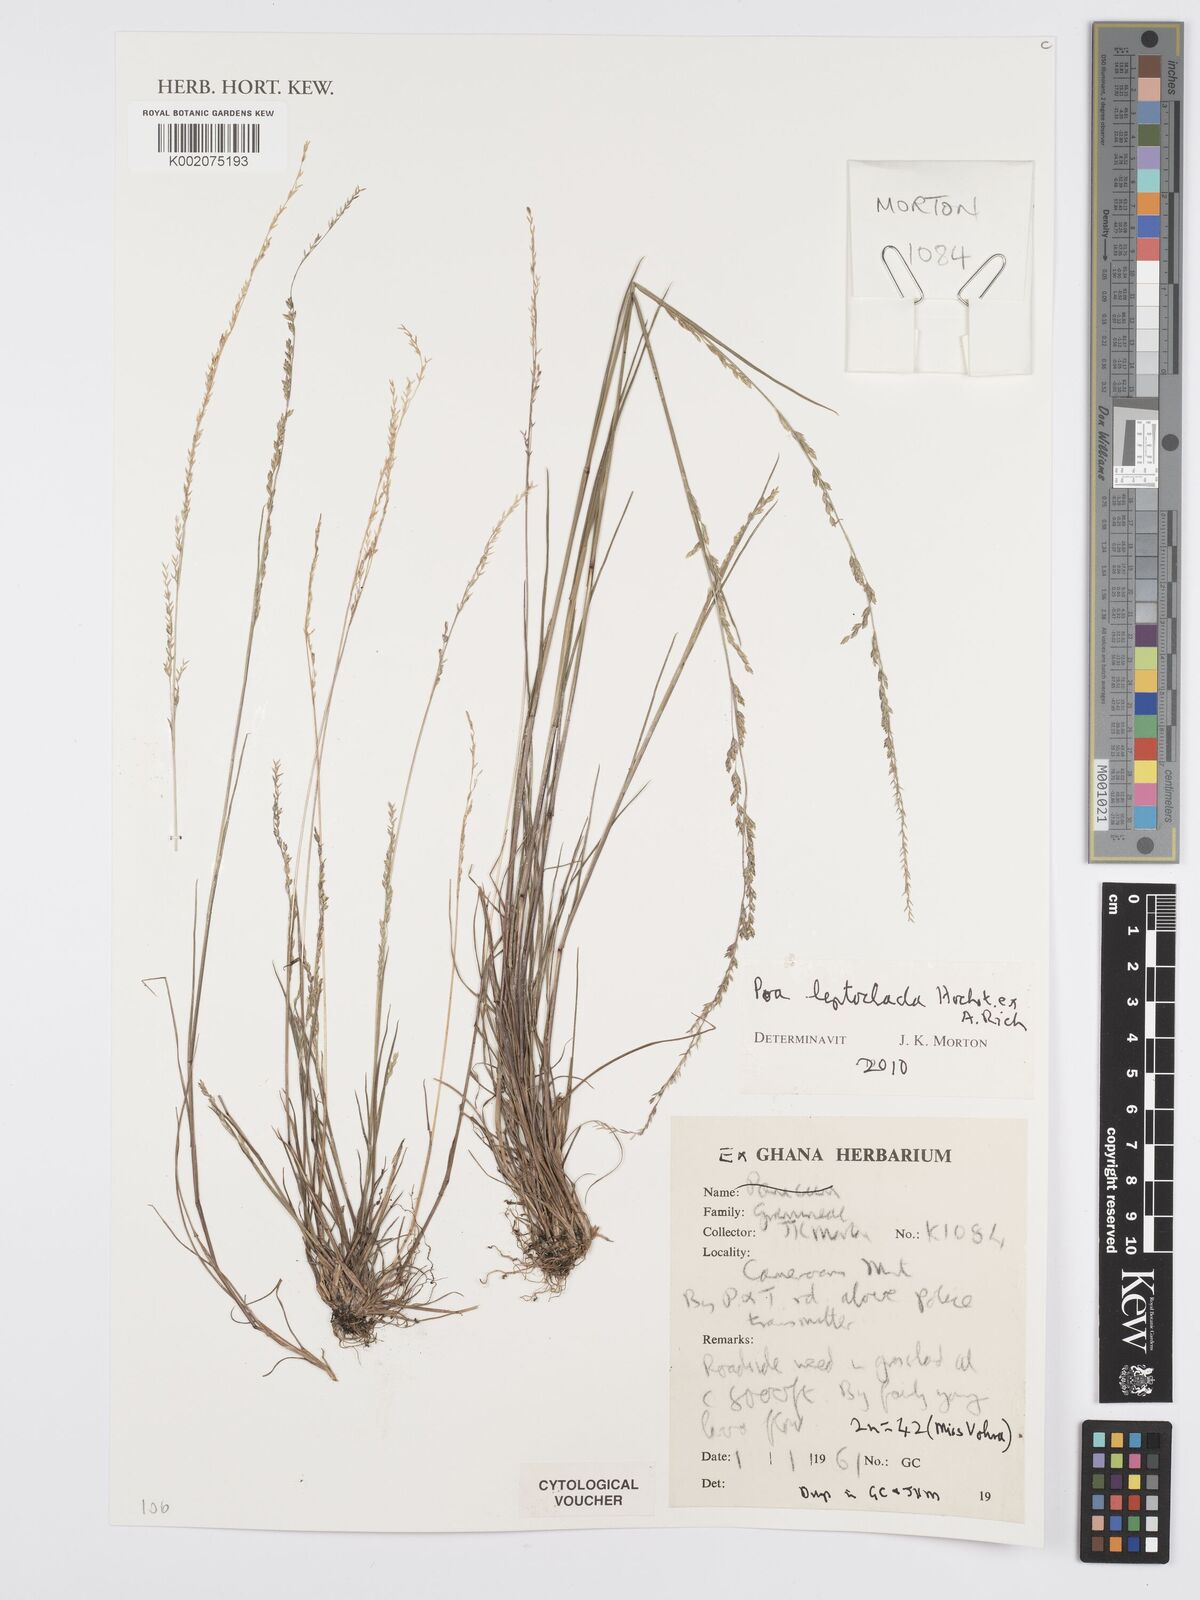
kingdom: Plantae
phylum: Tracheophyta
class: Liliopsida
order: Poales
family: Poaceae
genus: Poa
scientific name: Poa leptoclada
